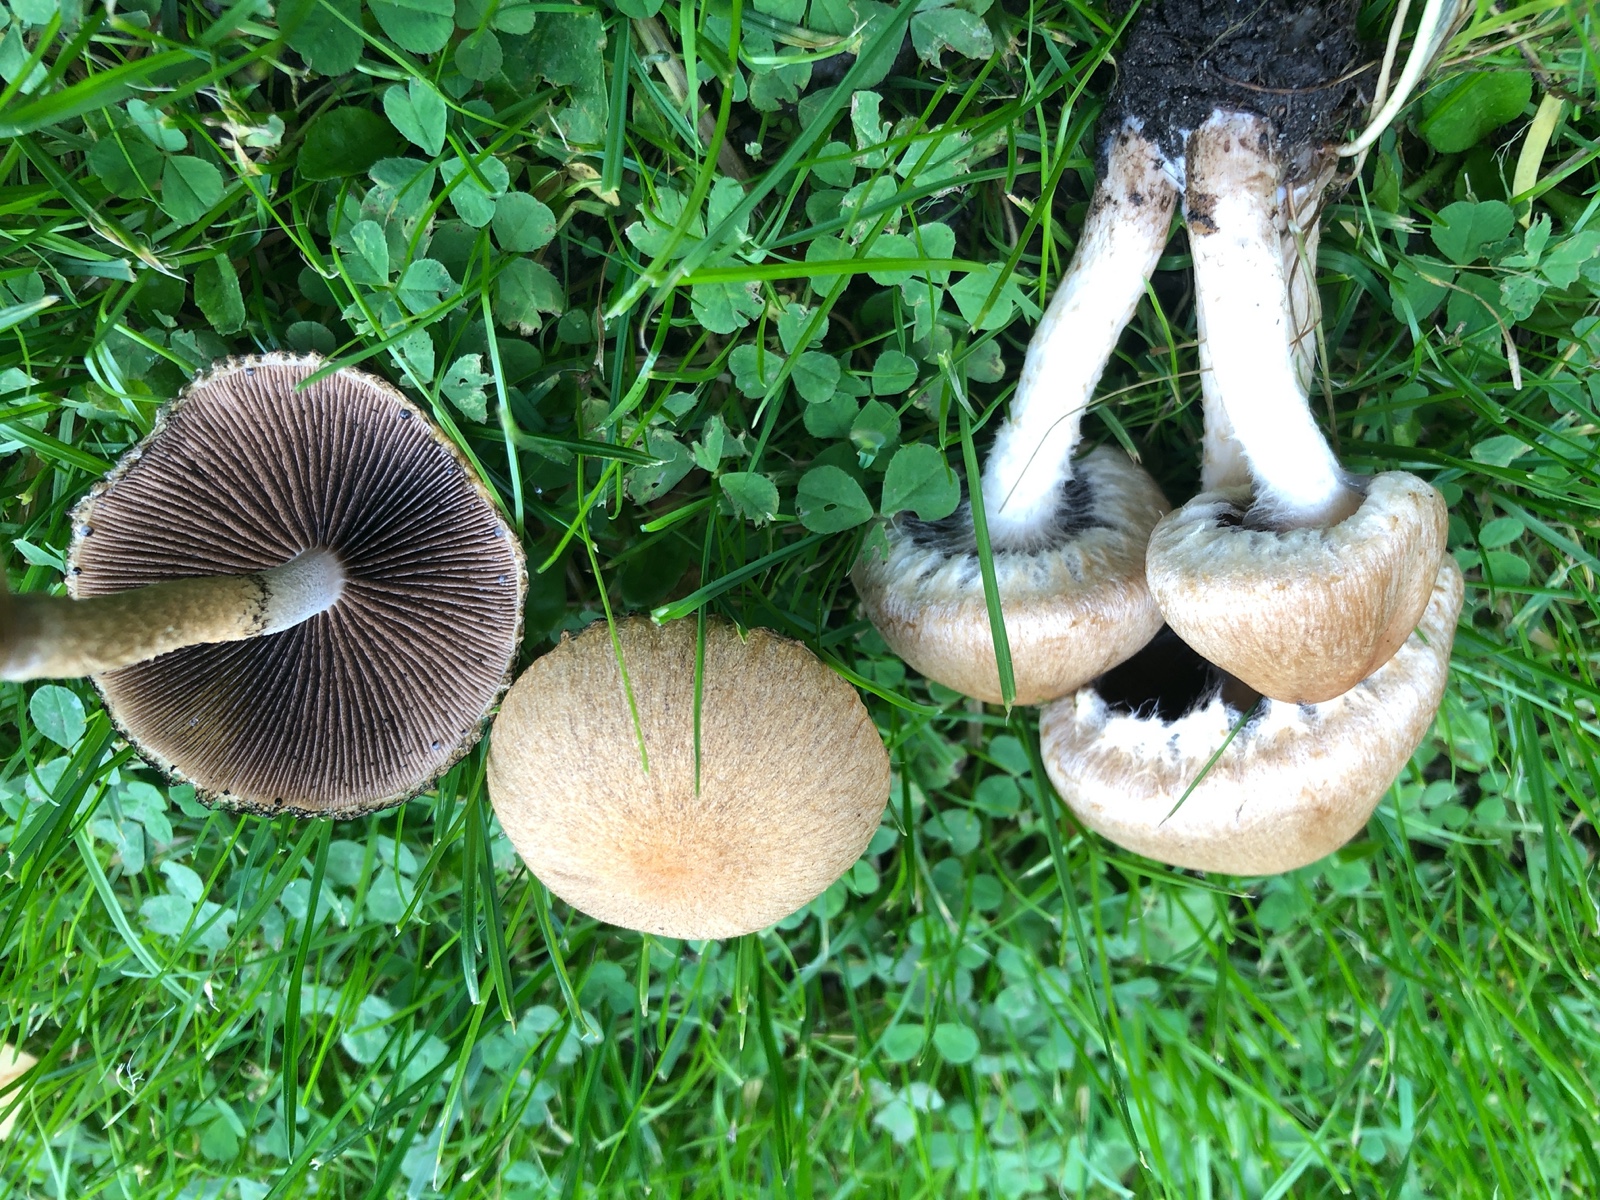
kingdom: Fungi
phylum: Basidiomycota
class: Agaricomycetes
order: Agaricales
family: Psathyrellaceae
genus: Lacrymaria
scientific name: Lacrymaria lacrymabunda
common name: grædende mørkhat
